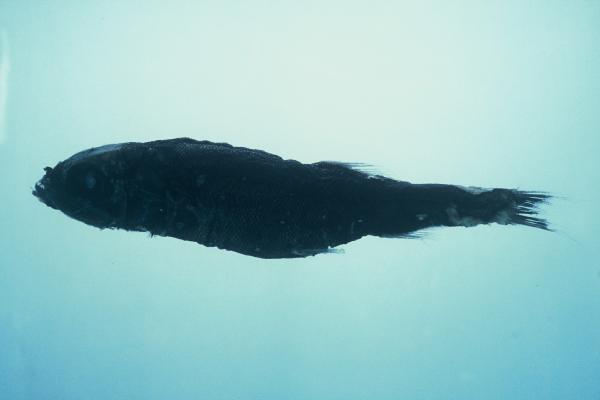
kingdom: Animalia
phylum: Chordata
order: Osmeriformes
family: Platytroctidae
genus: Persparsia
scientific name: Persparsia kopua
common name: Spangled tubeshoulder
